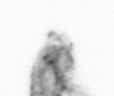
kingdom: Animalia
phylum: Arthropoda
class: Copepoda
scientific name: Copepoda
